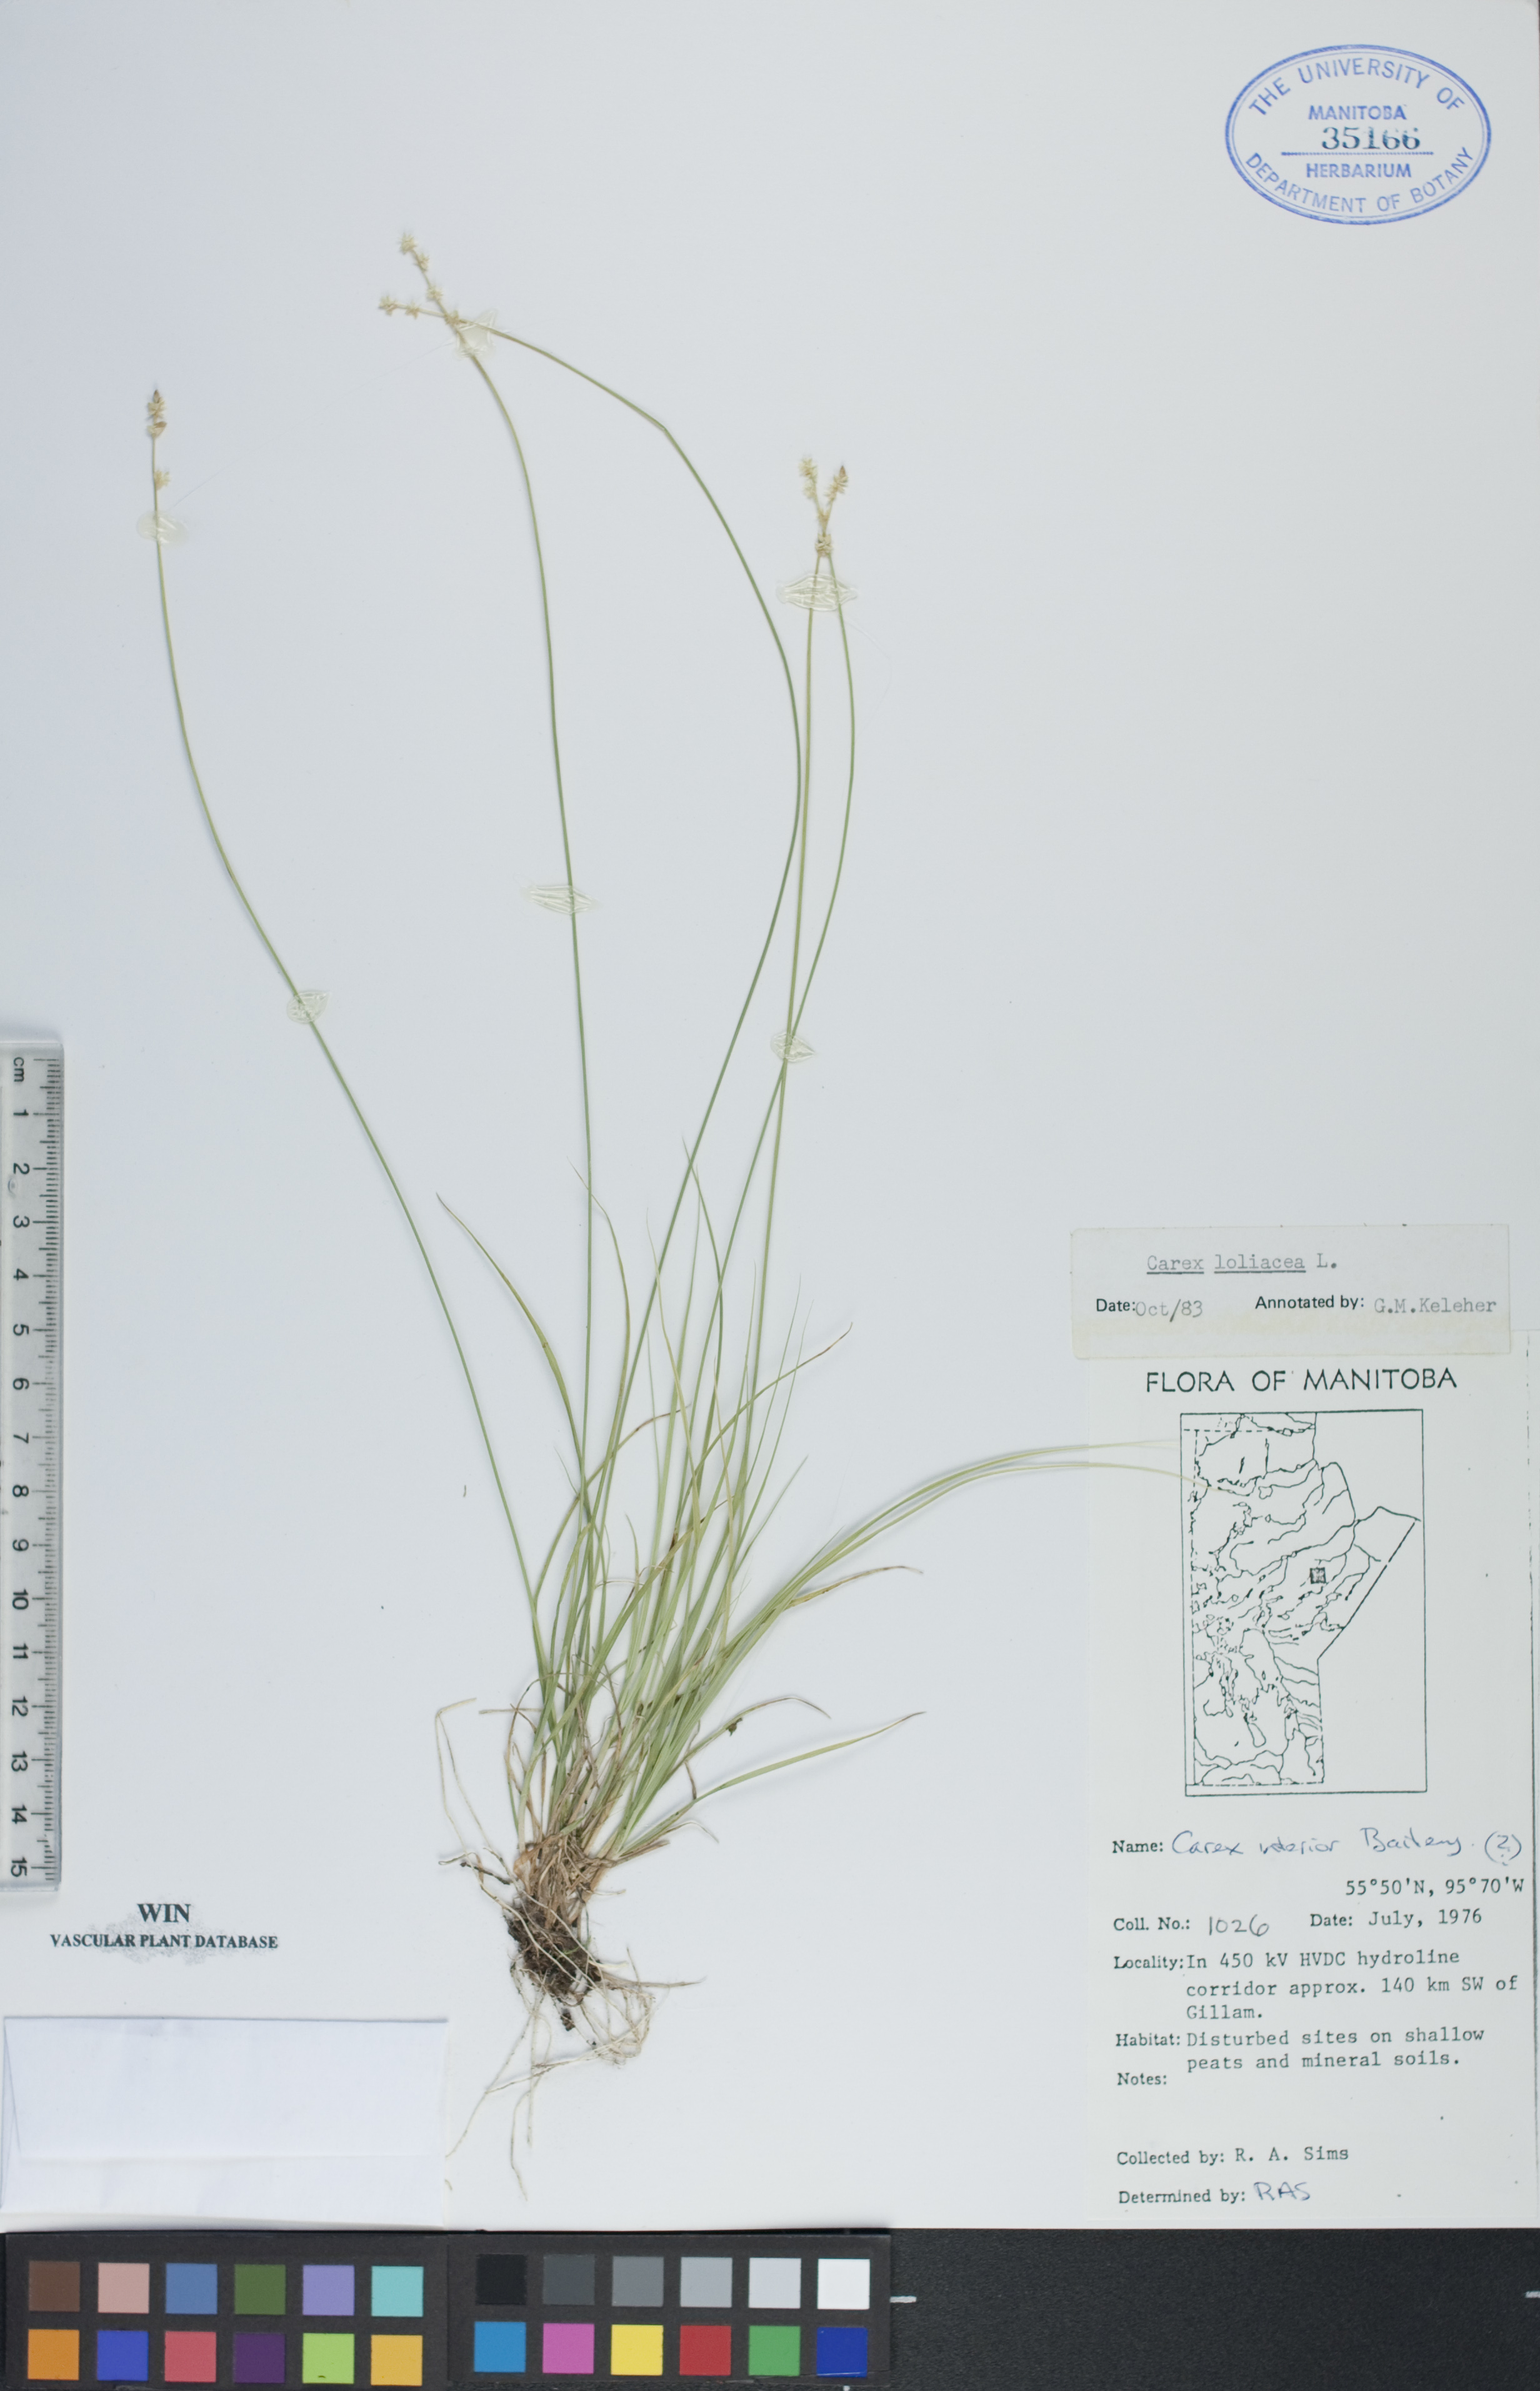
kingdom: Plantae
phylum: Tracheophyta
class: Liliopsida
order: Poales
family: Cyperaceae
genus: Carex
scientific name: Carex loliacea
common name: Ryegrass sedge
